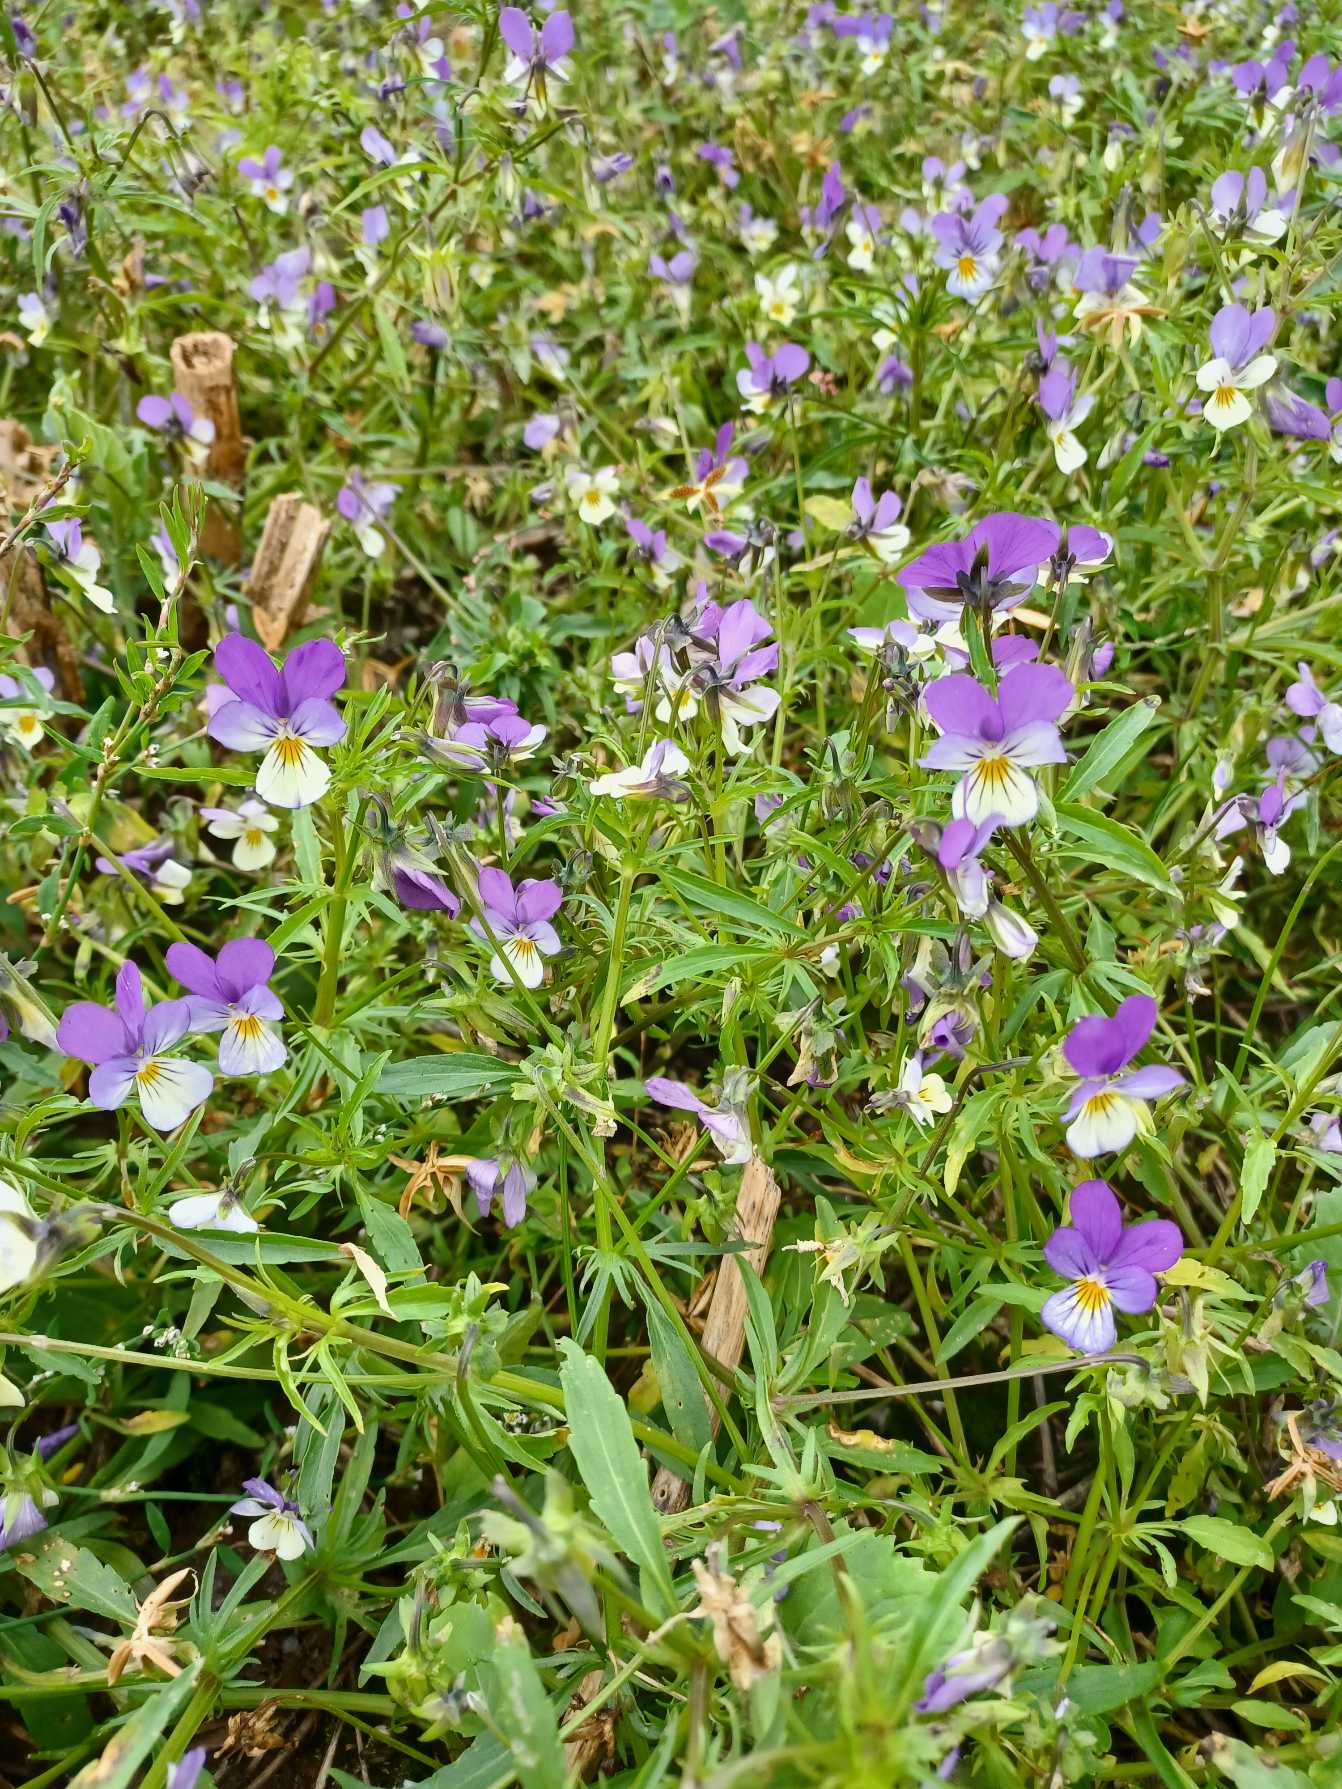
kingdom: Plantae
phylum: Tracheophyta
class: Magnoliopsida
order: Malpighiales
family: Violaceae
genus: Viola
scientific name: Viola tricolor
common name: Stedmoderblomst
